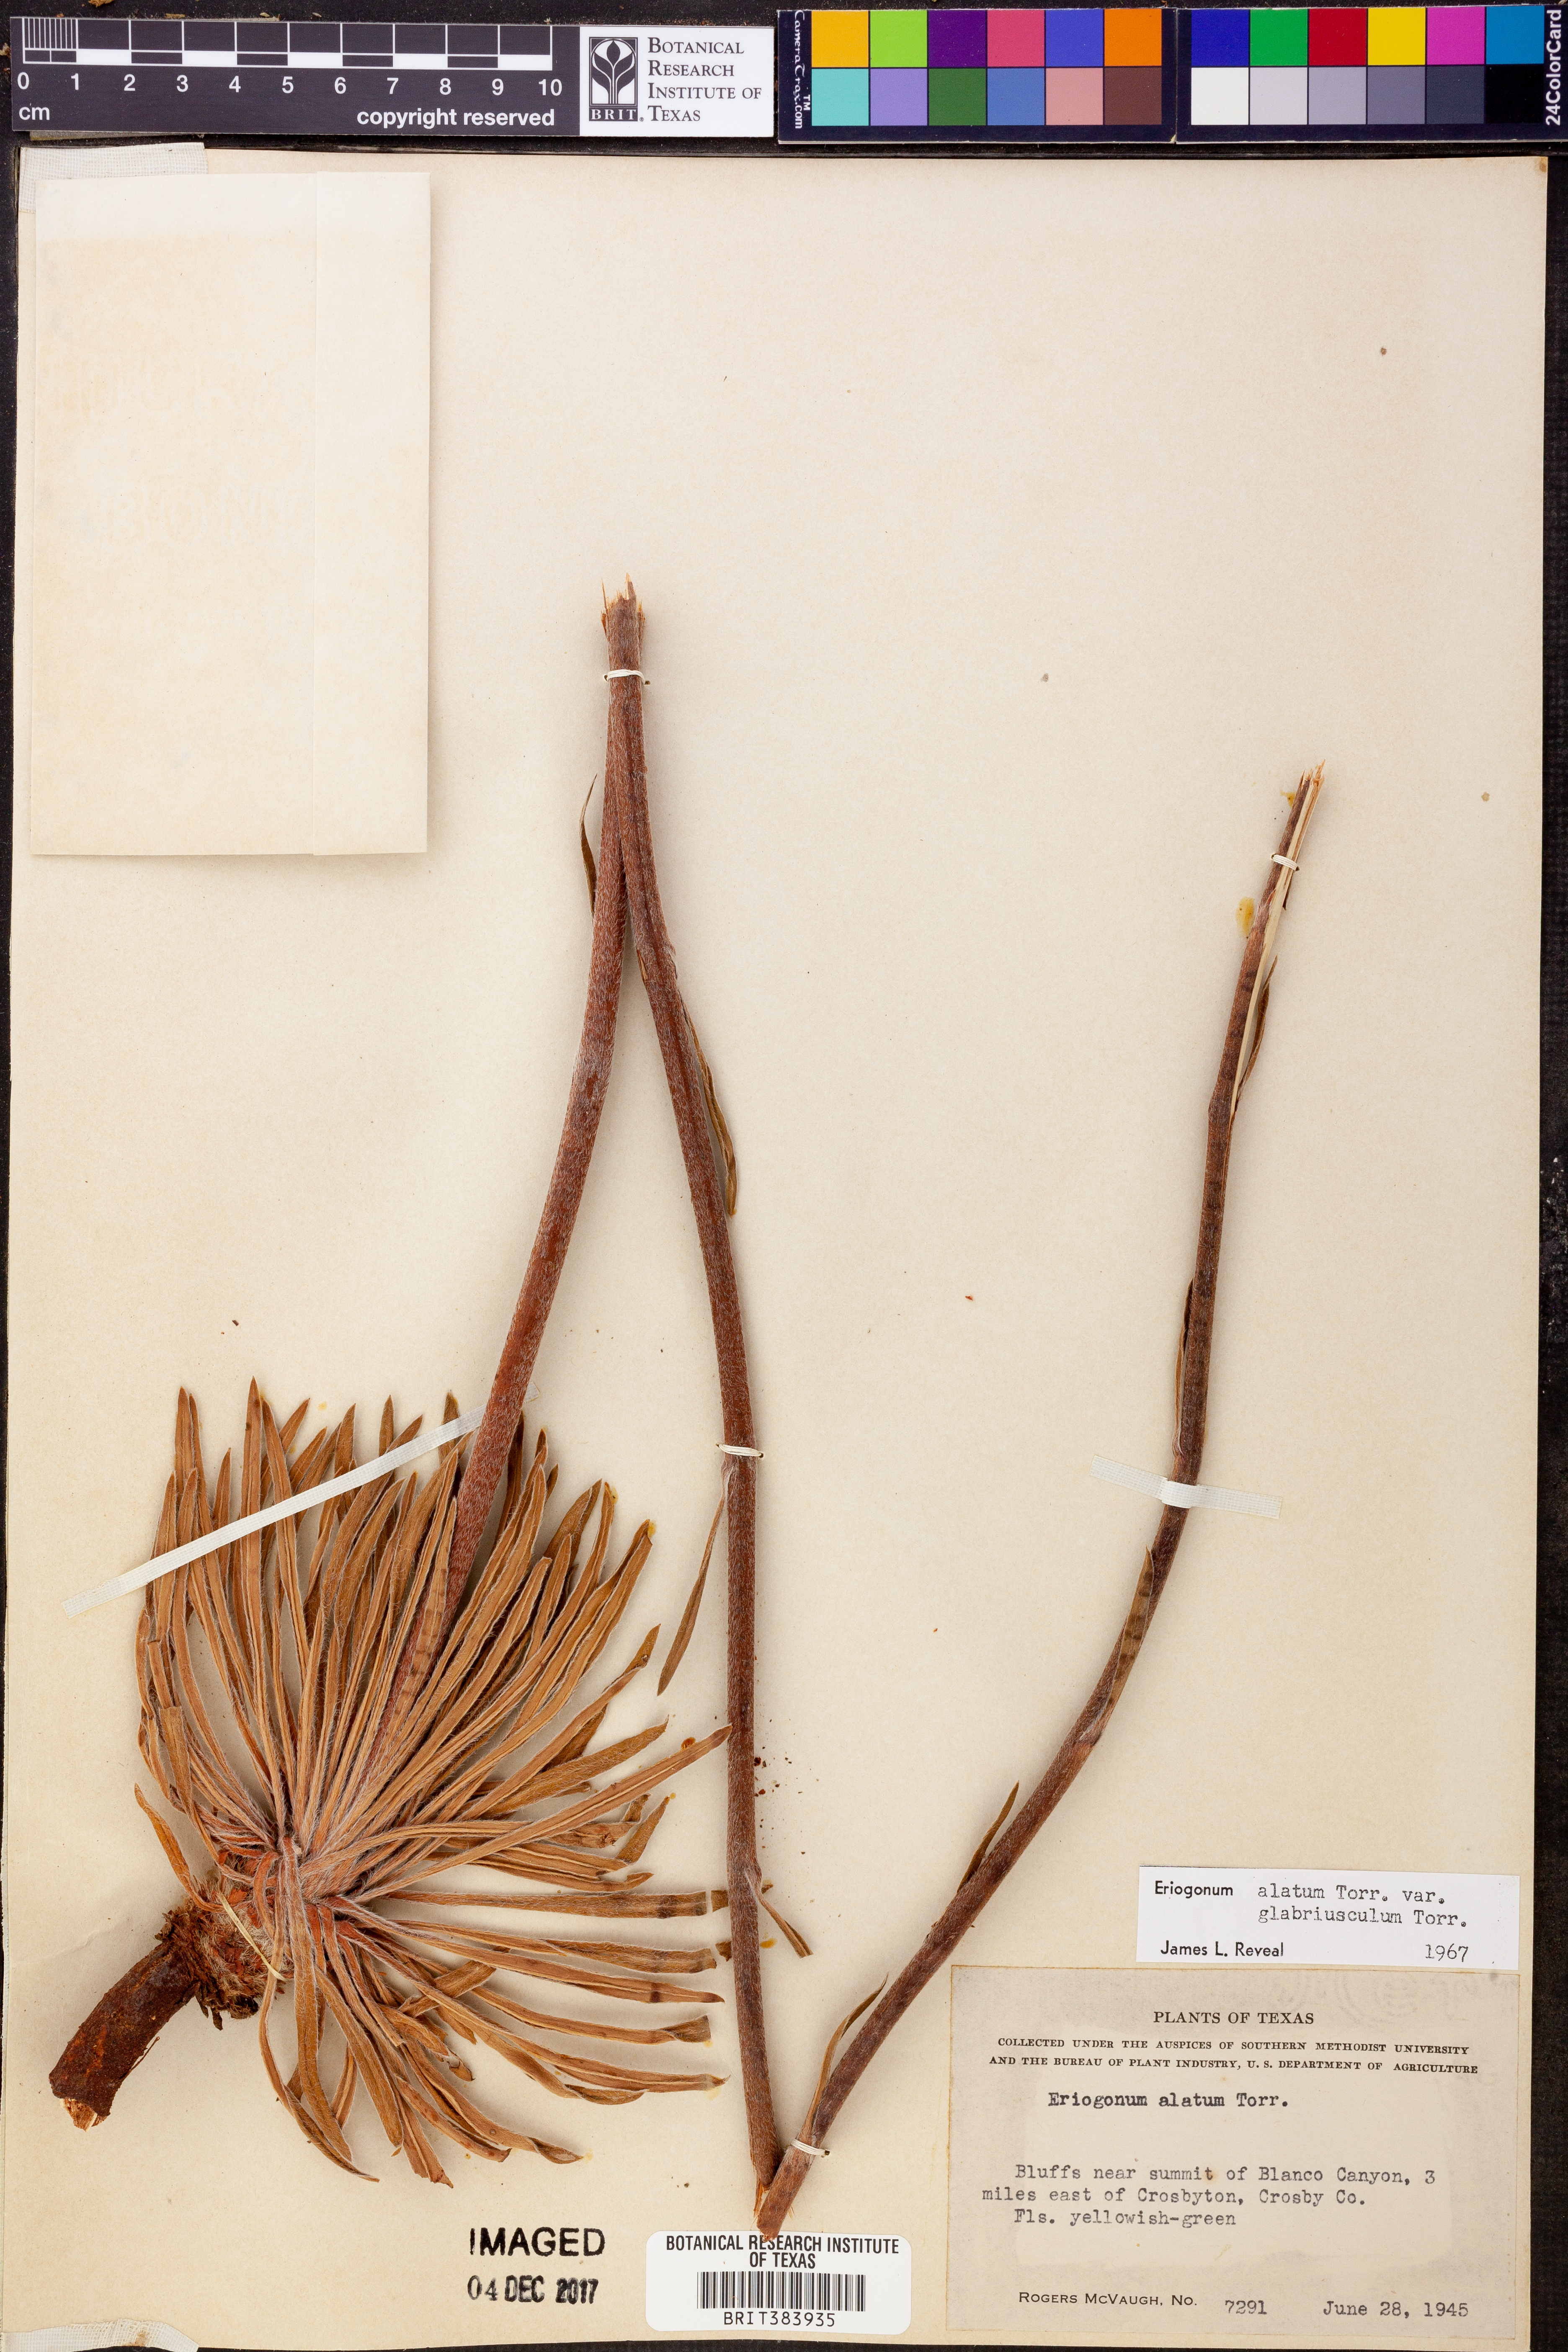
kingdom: Plantae
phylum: Tracheophyta
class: Magnoliopsida
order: Caryophyllales
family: Polygonaceae
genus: Eriogonum
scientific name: Eriogonum alatum
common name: Winged eriogonum
